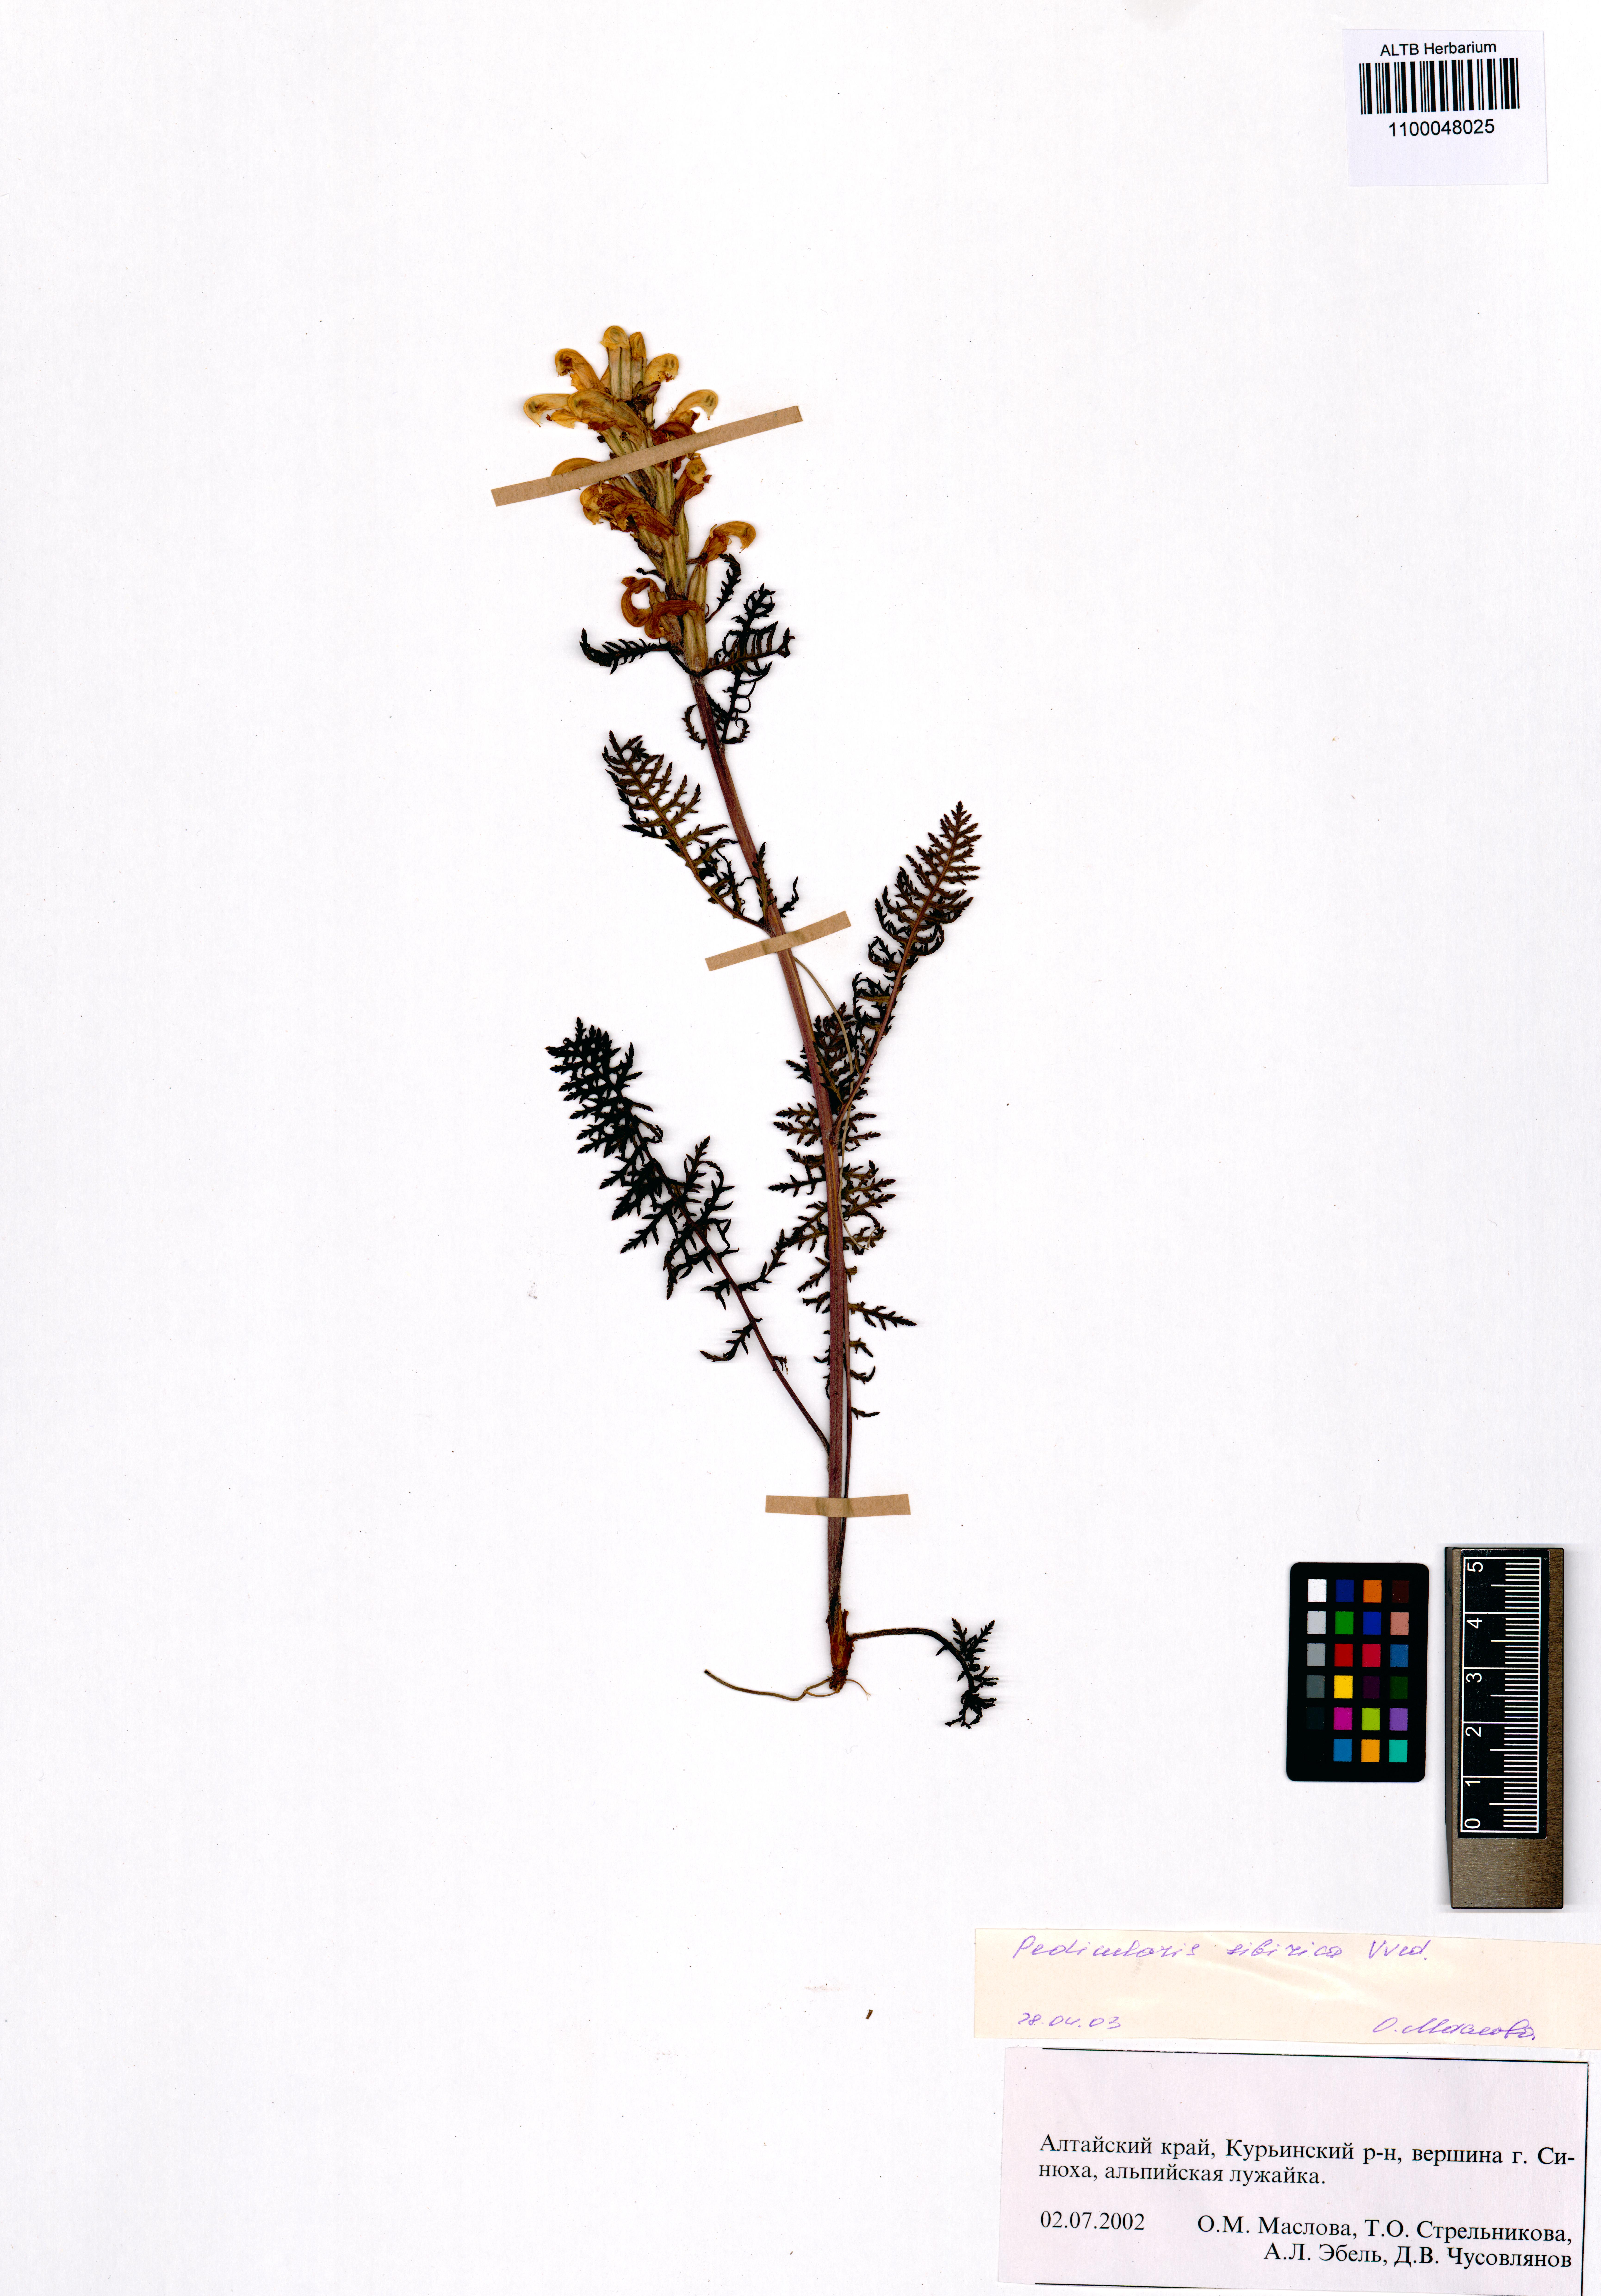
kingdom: Plantae
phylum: Tracheophyta
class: Magnoliopsida
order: Lamiales
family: Orobanchaceae
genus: Pedicularis
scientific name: Pedicularis sibirica
